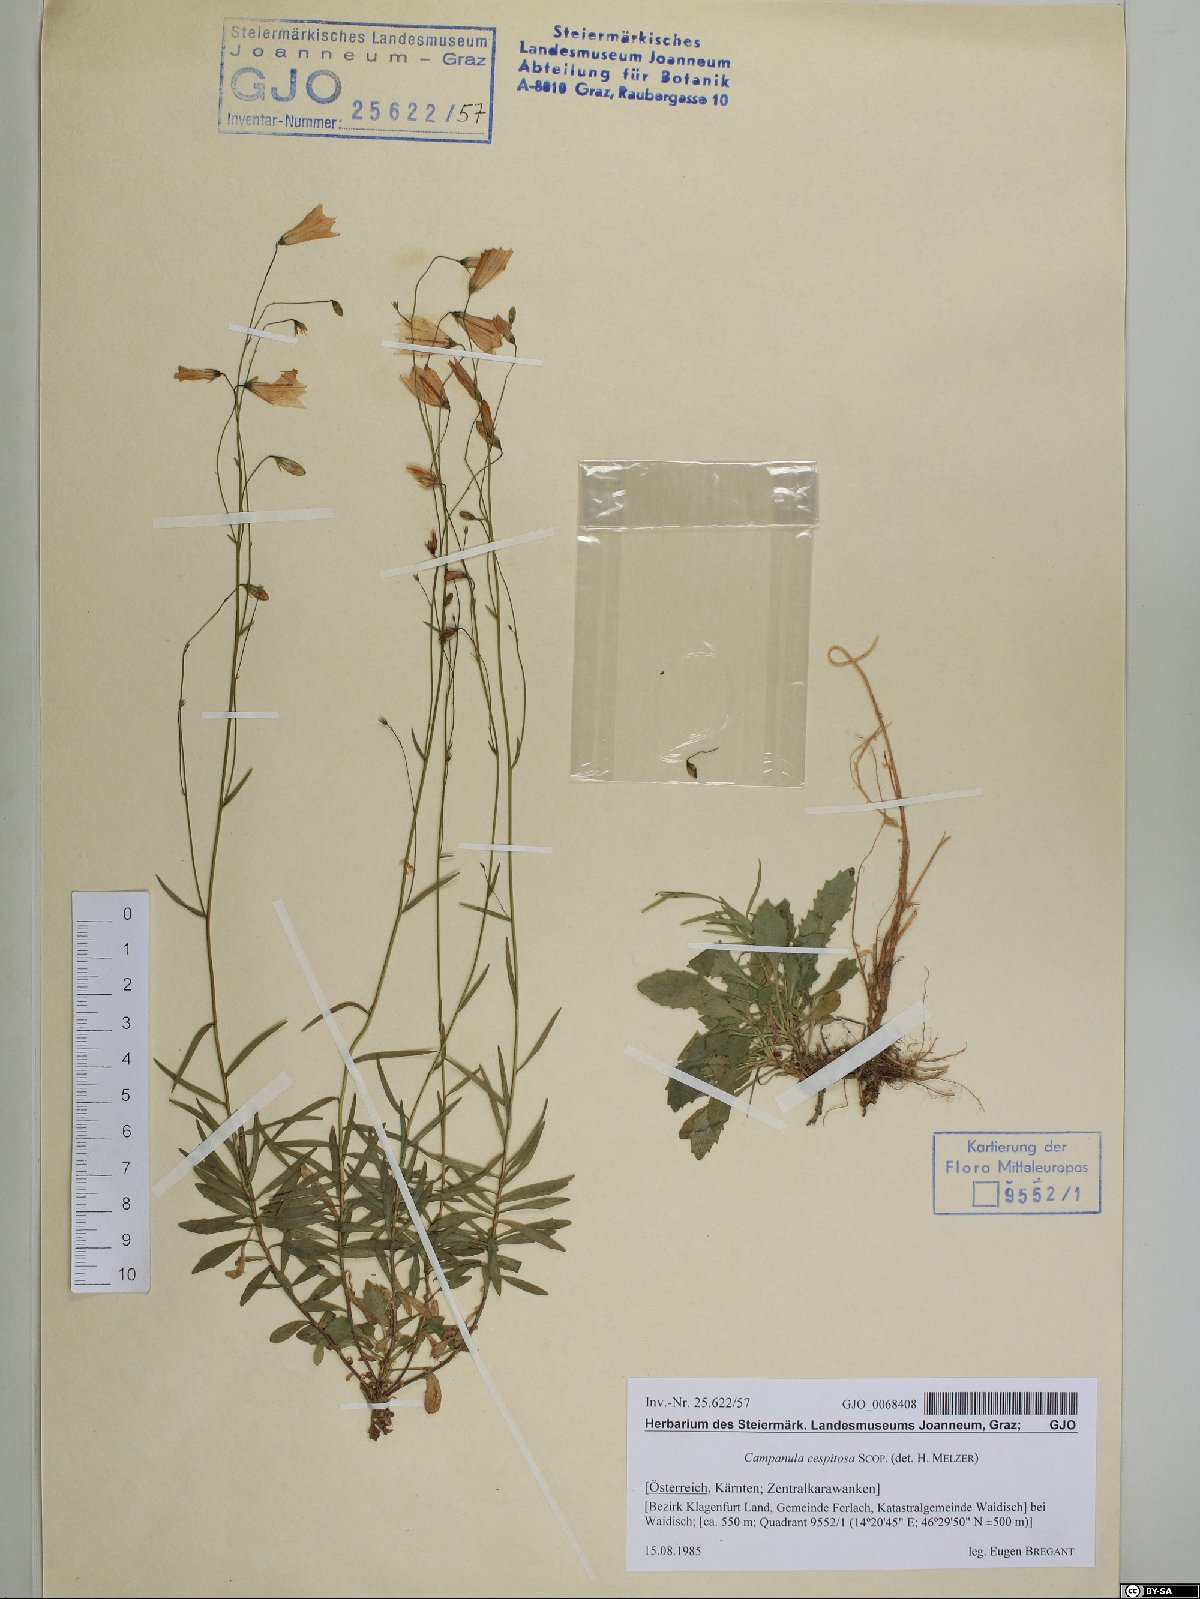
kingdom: Plantae
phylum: Tracheophyta
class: Magnoliopsida
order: Asterales
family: Campanulaceae
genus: Campanula
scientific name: Campanula cespitosa
